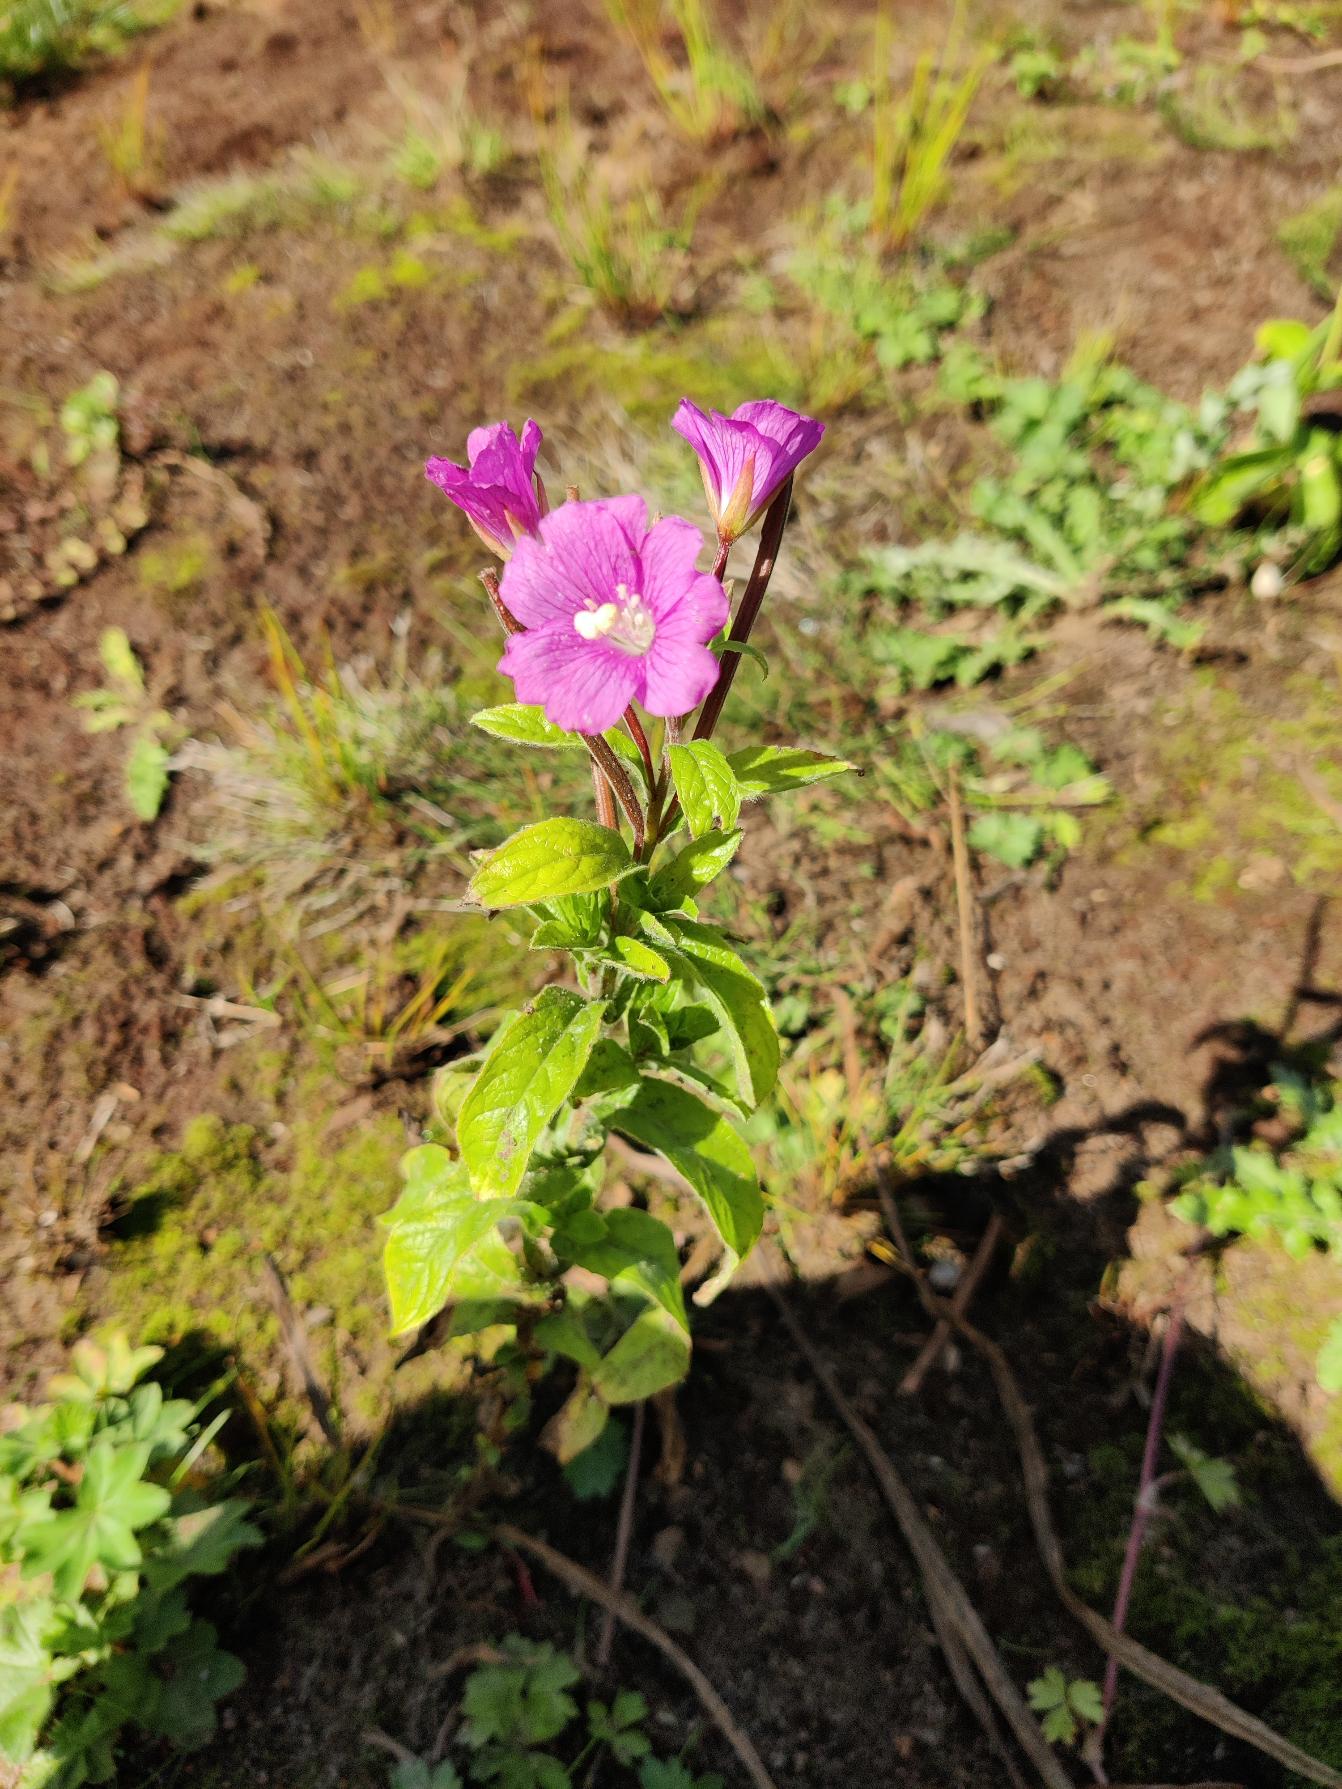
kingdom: Plantae
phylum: Tracheophyta
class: Magnoliopsida
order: Myrtales
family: Onagraceae
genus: Epilobium
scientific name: Epilobium hirsutum
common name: Lådden dueurt
